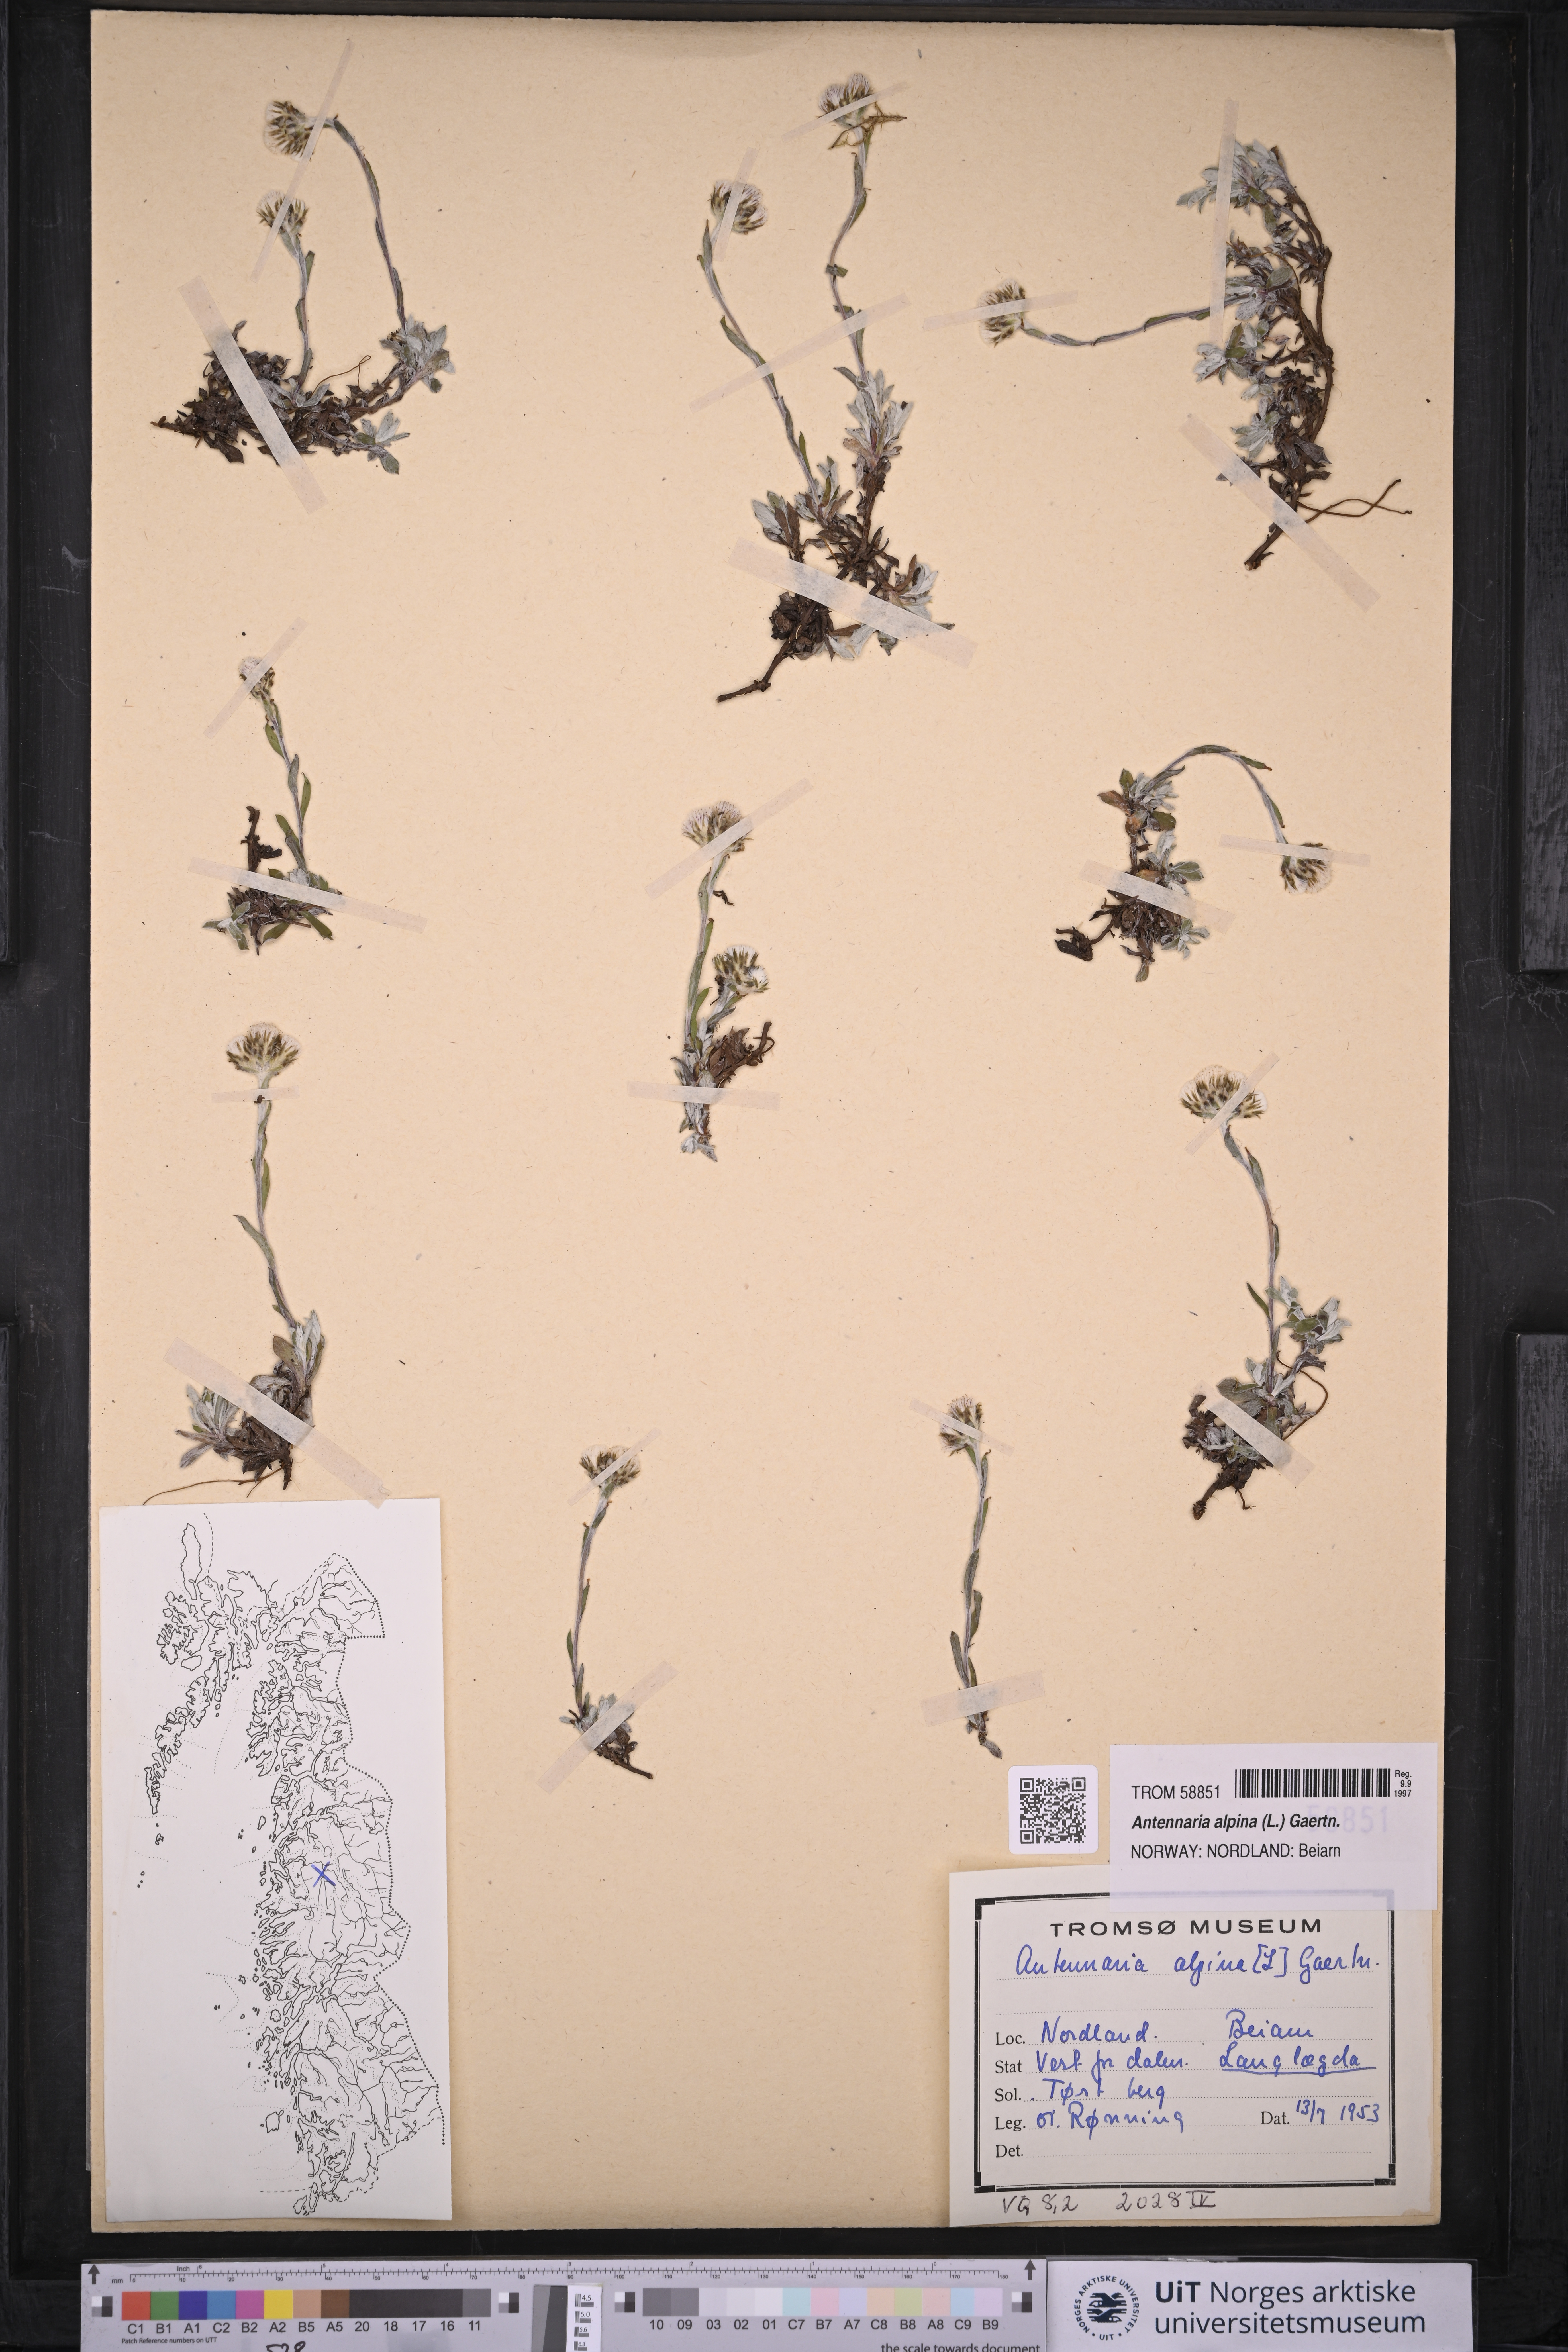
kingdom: Plantae
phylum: Tracheophyta
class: Magnoliopsida
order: Asterales
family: Asteraceae
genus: Antennaria
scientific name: Antennaria alpina
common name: Alpine pussytoes
